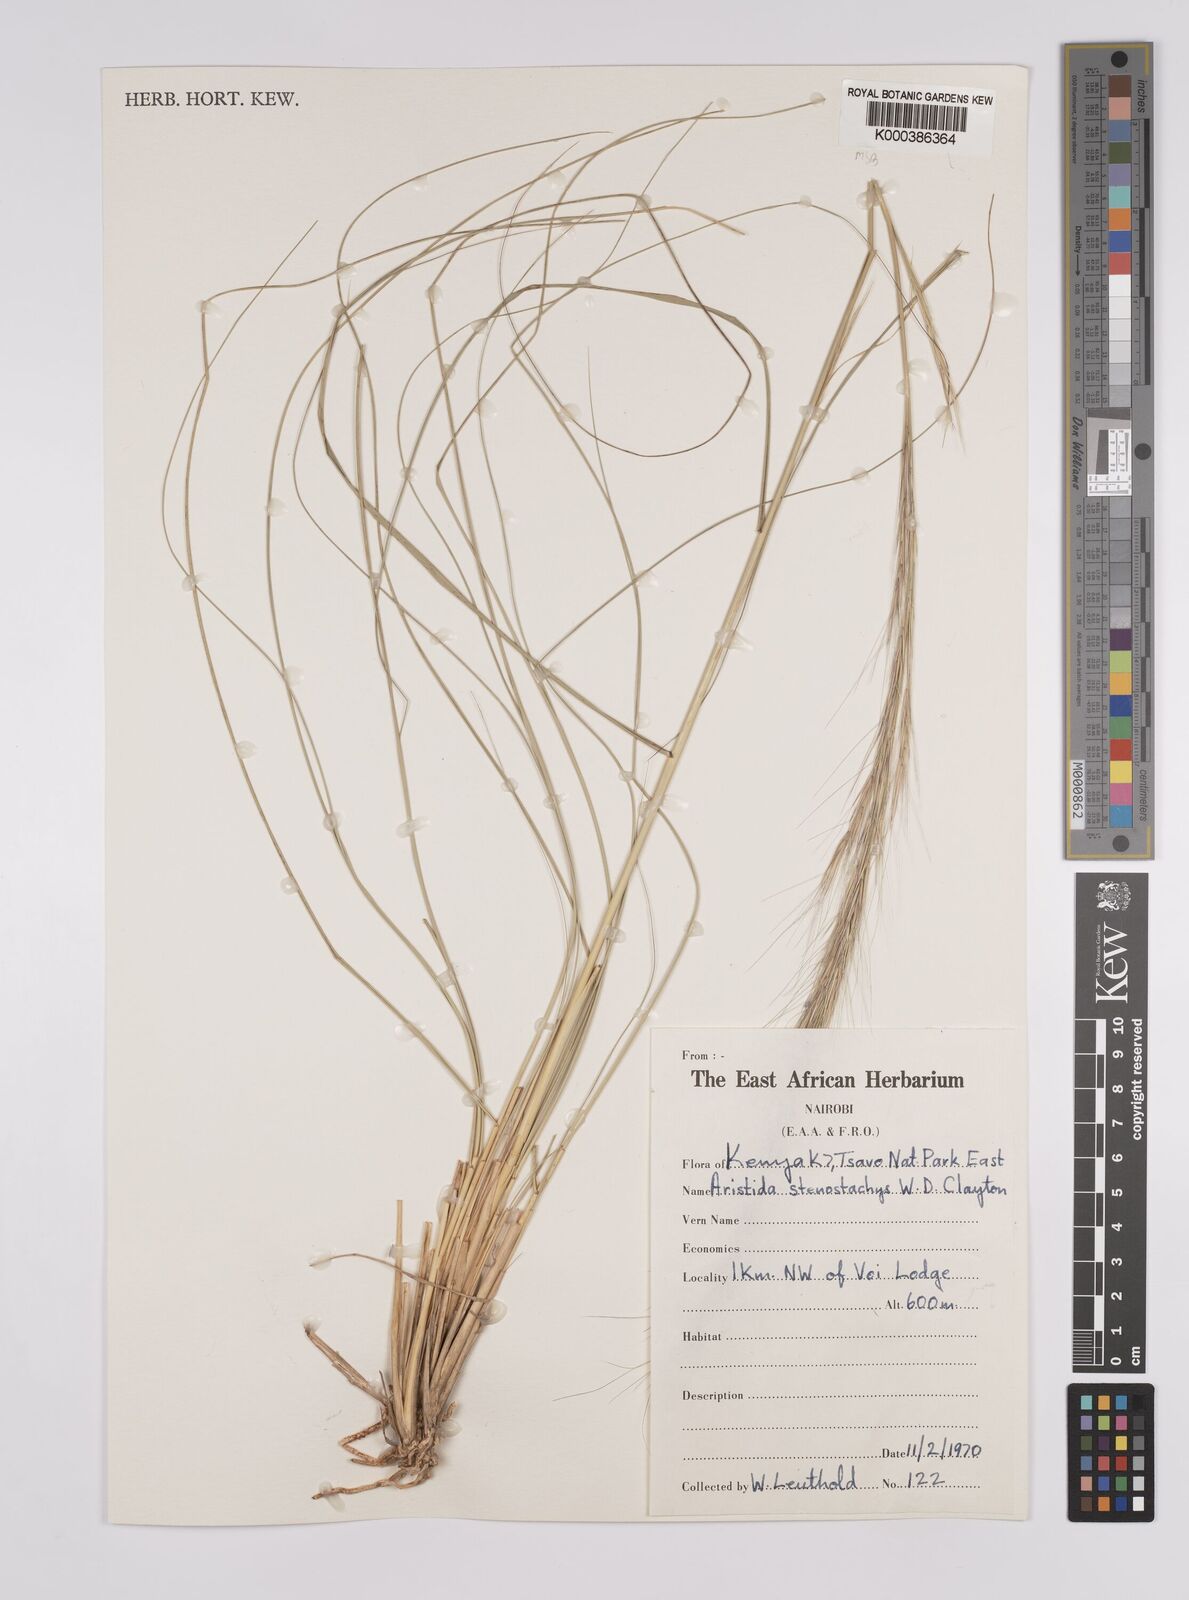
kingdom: Plantae
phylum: Tracheophyta
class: Liliopsida
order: Poales
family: Poaceae
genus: Aristida
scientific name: Aristida stenostachya
